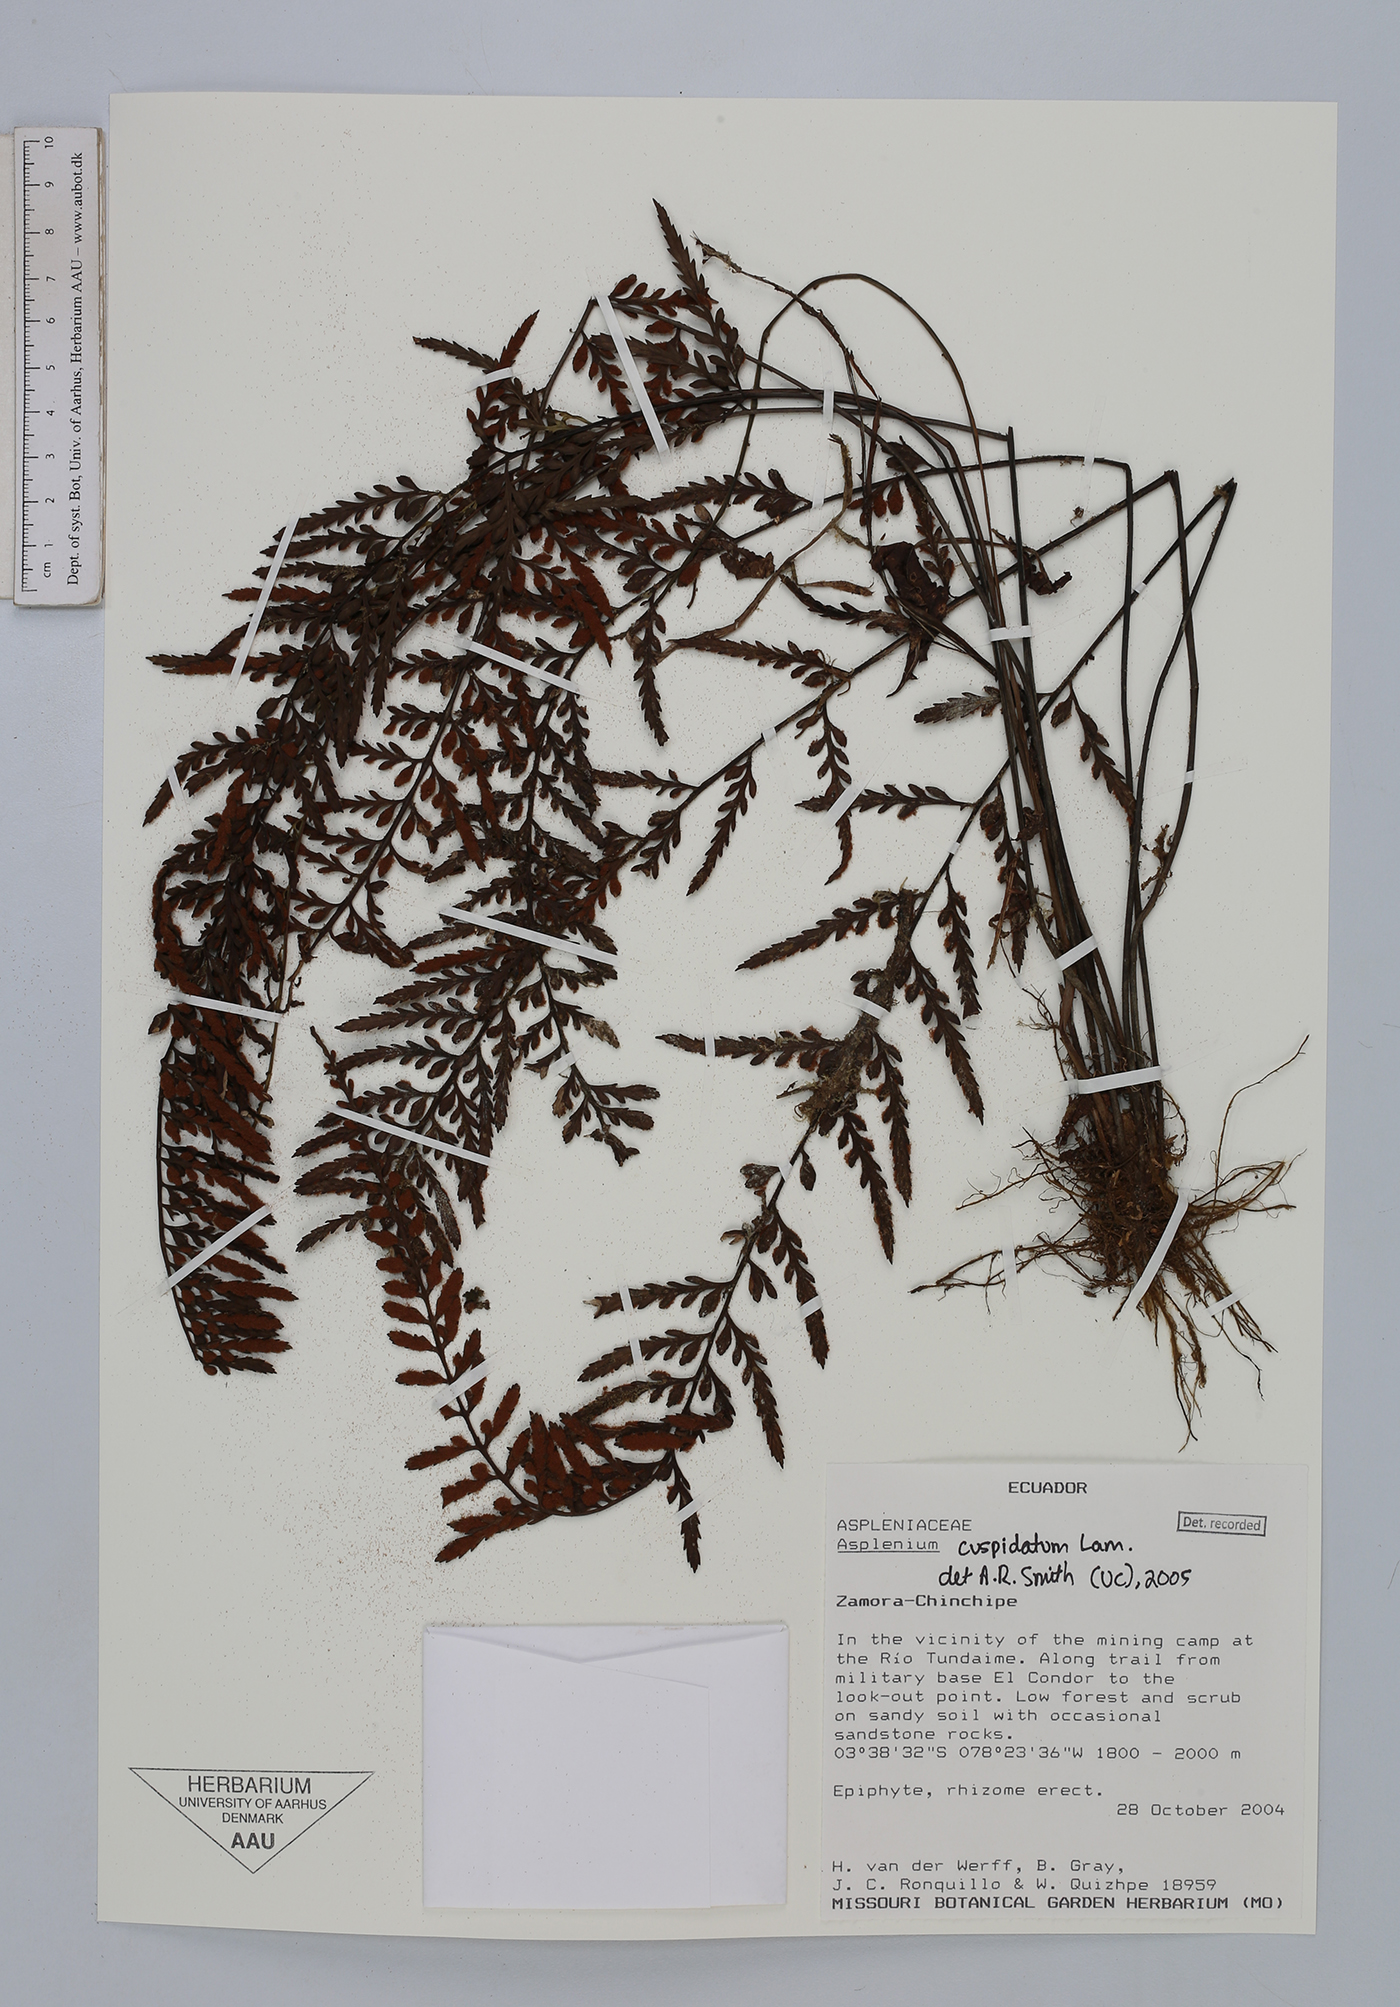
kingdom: Plantae
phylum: Tracheophyta
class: Polypodiopsida
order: Polypodiales
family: Aspleniaceae
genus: Asplenium
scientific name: Asplenium cuspidatum
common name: Eared spleenwort
